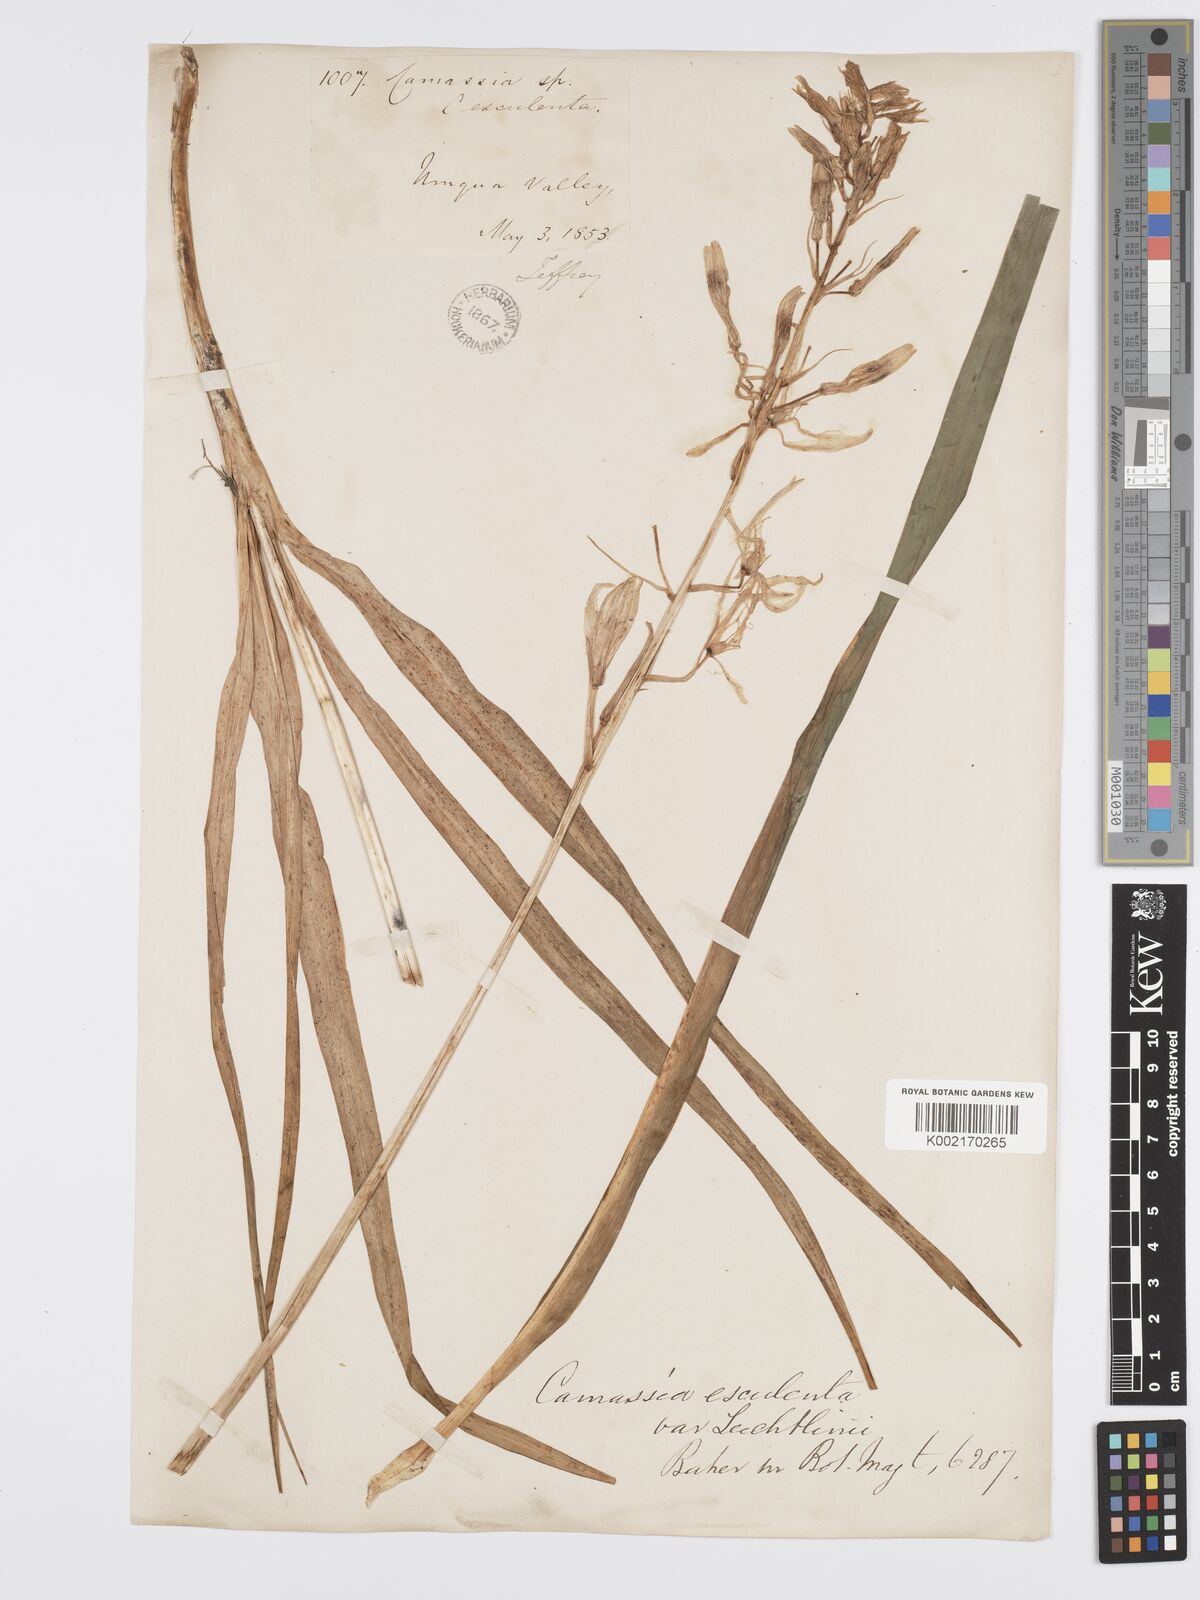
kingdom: Plantae
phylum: Tracheophyta
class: Liliopsida
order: Asparagales
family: Asparagaceae
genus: Camassia
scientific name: Camassia leichtlinii
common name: Leichtlin's camas
